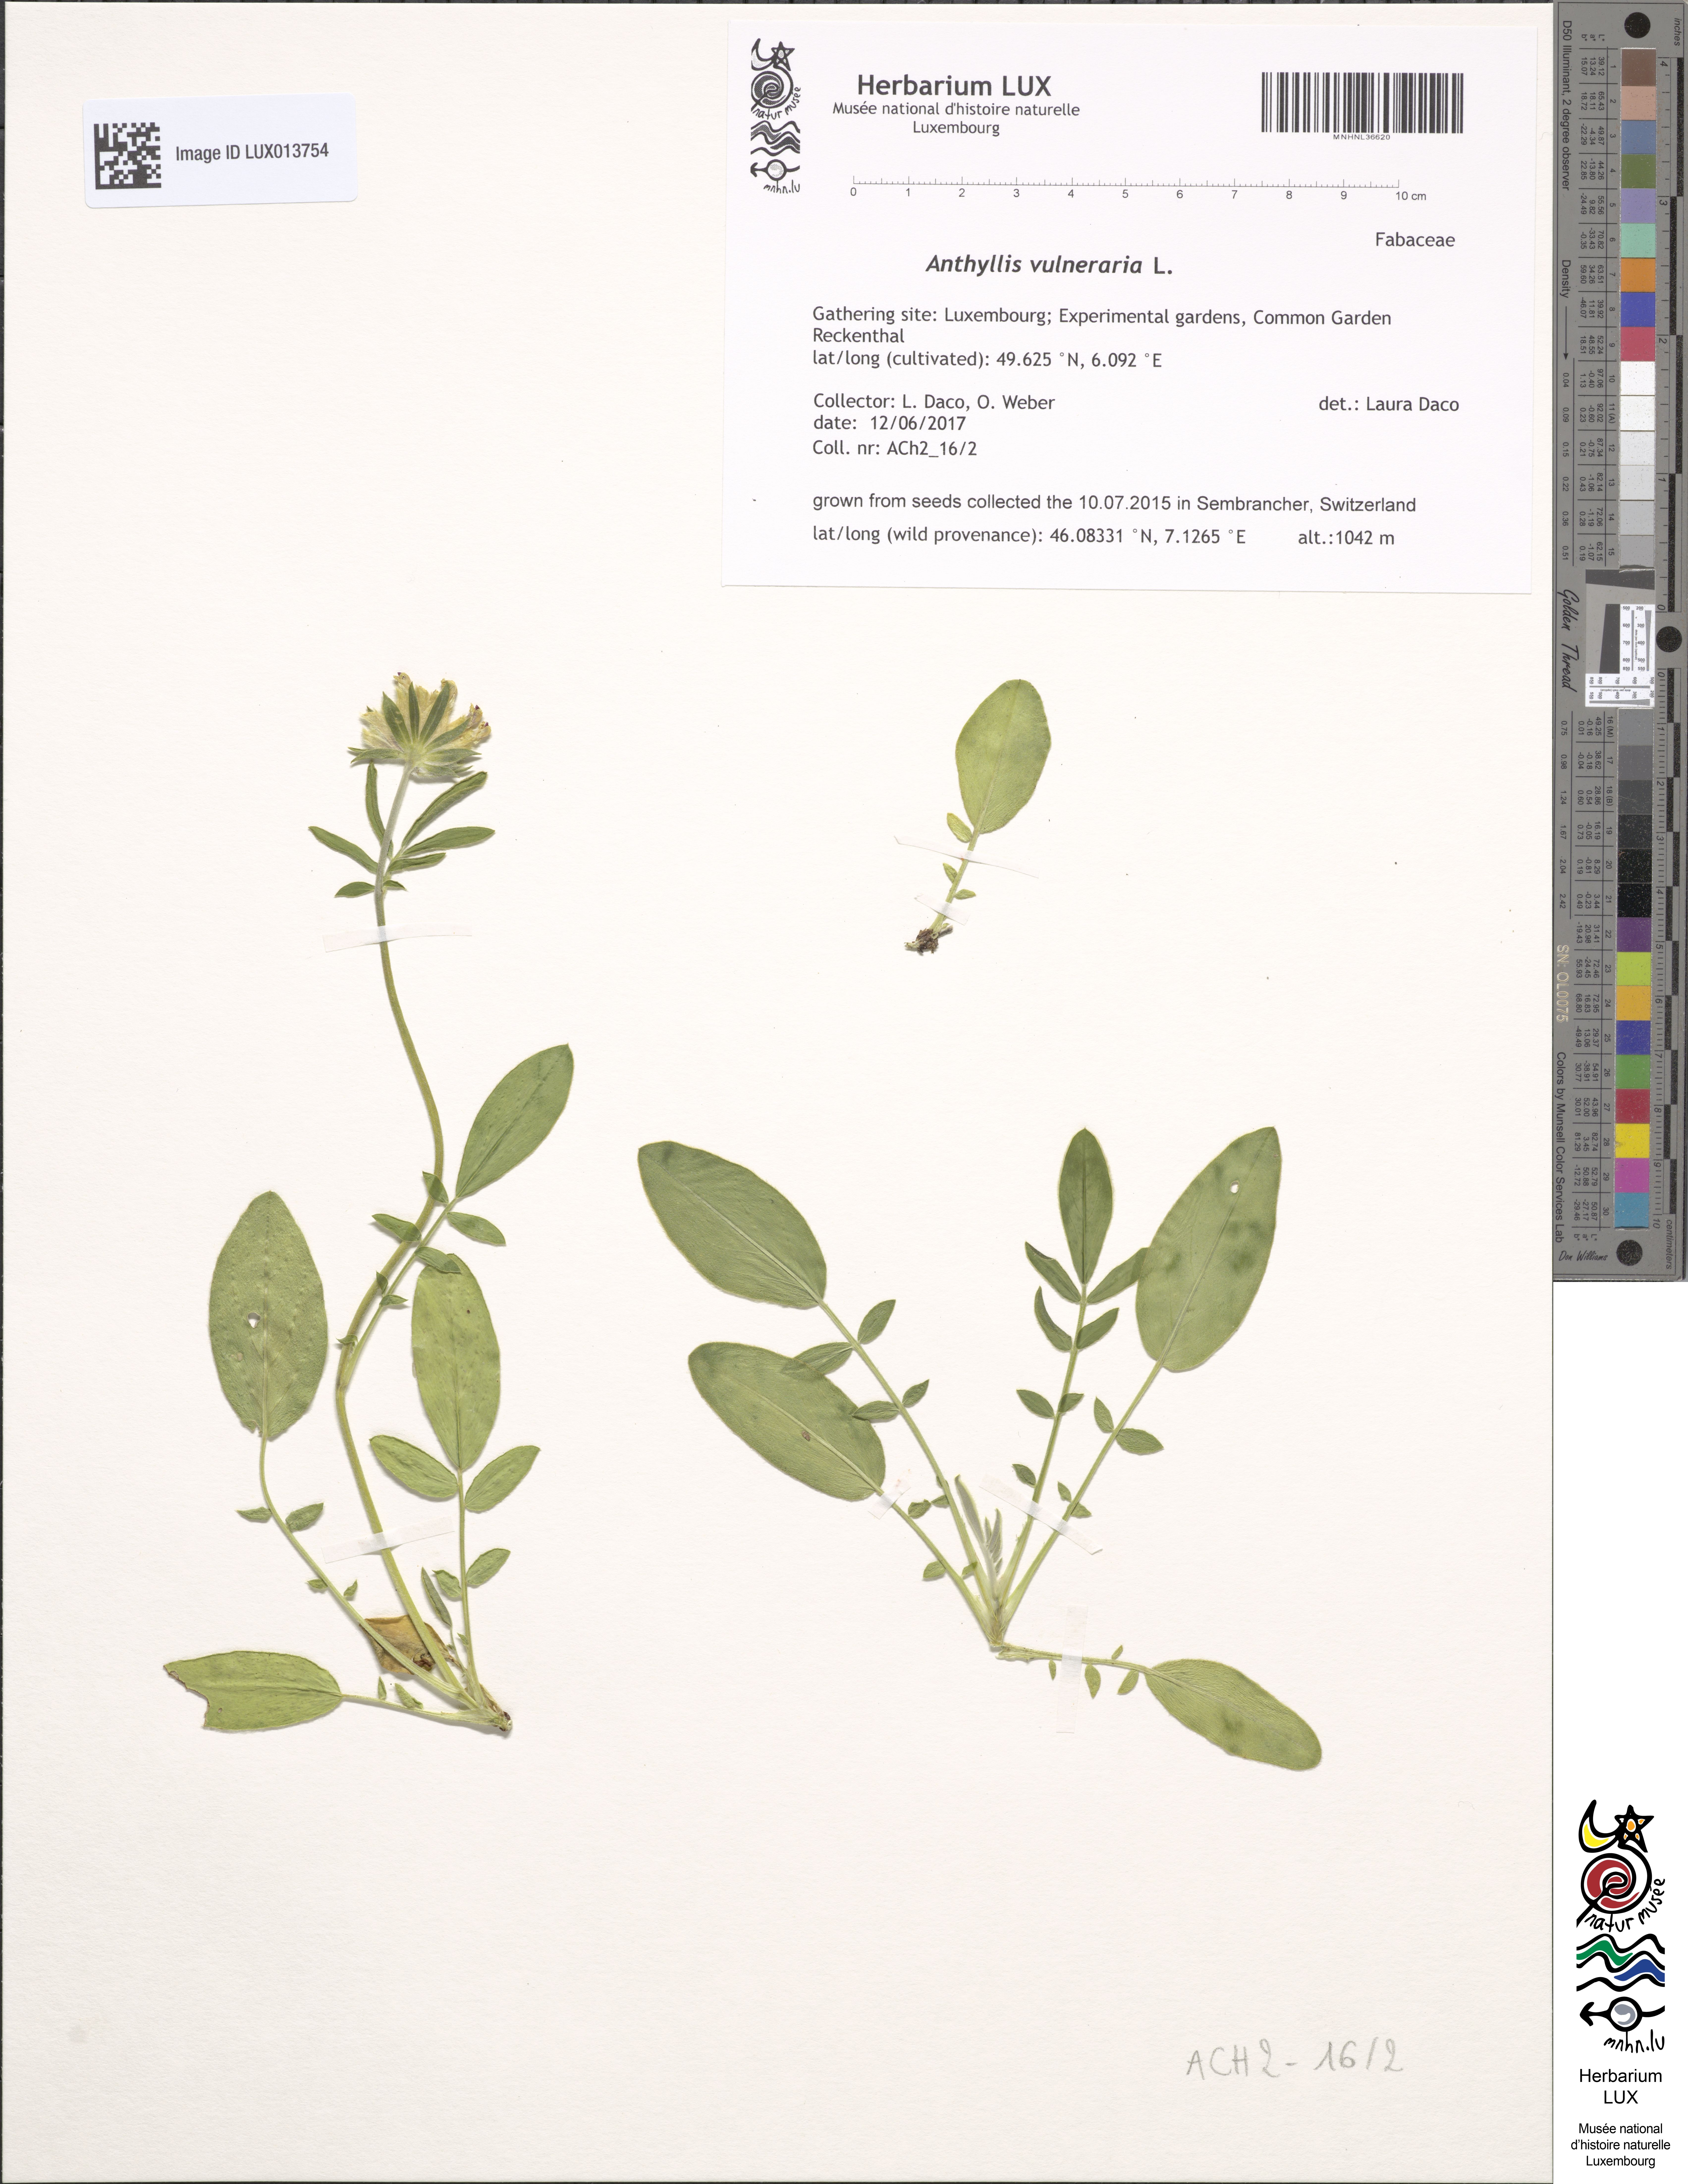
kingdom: Plantae
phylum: Tracheophyta
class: Magnoliopsida
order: Fabales
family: Fabaceae
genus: Anthyllis
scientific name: Anthyllis vulneraria
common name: Kidney vetch
